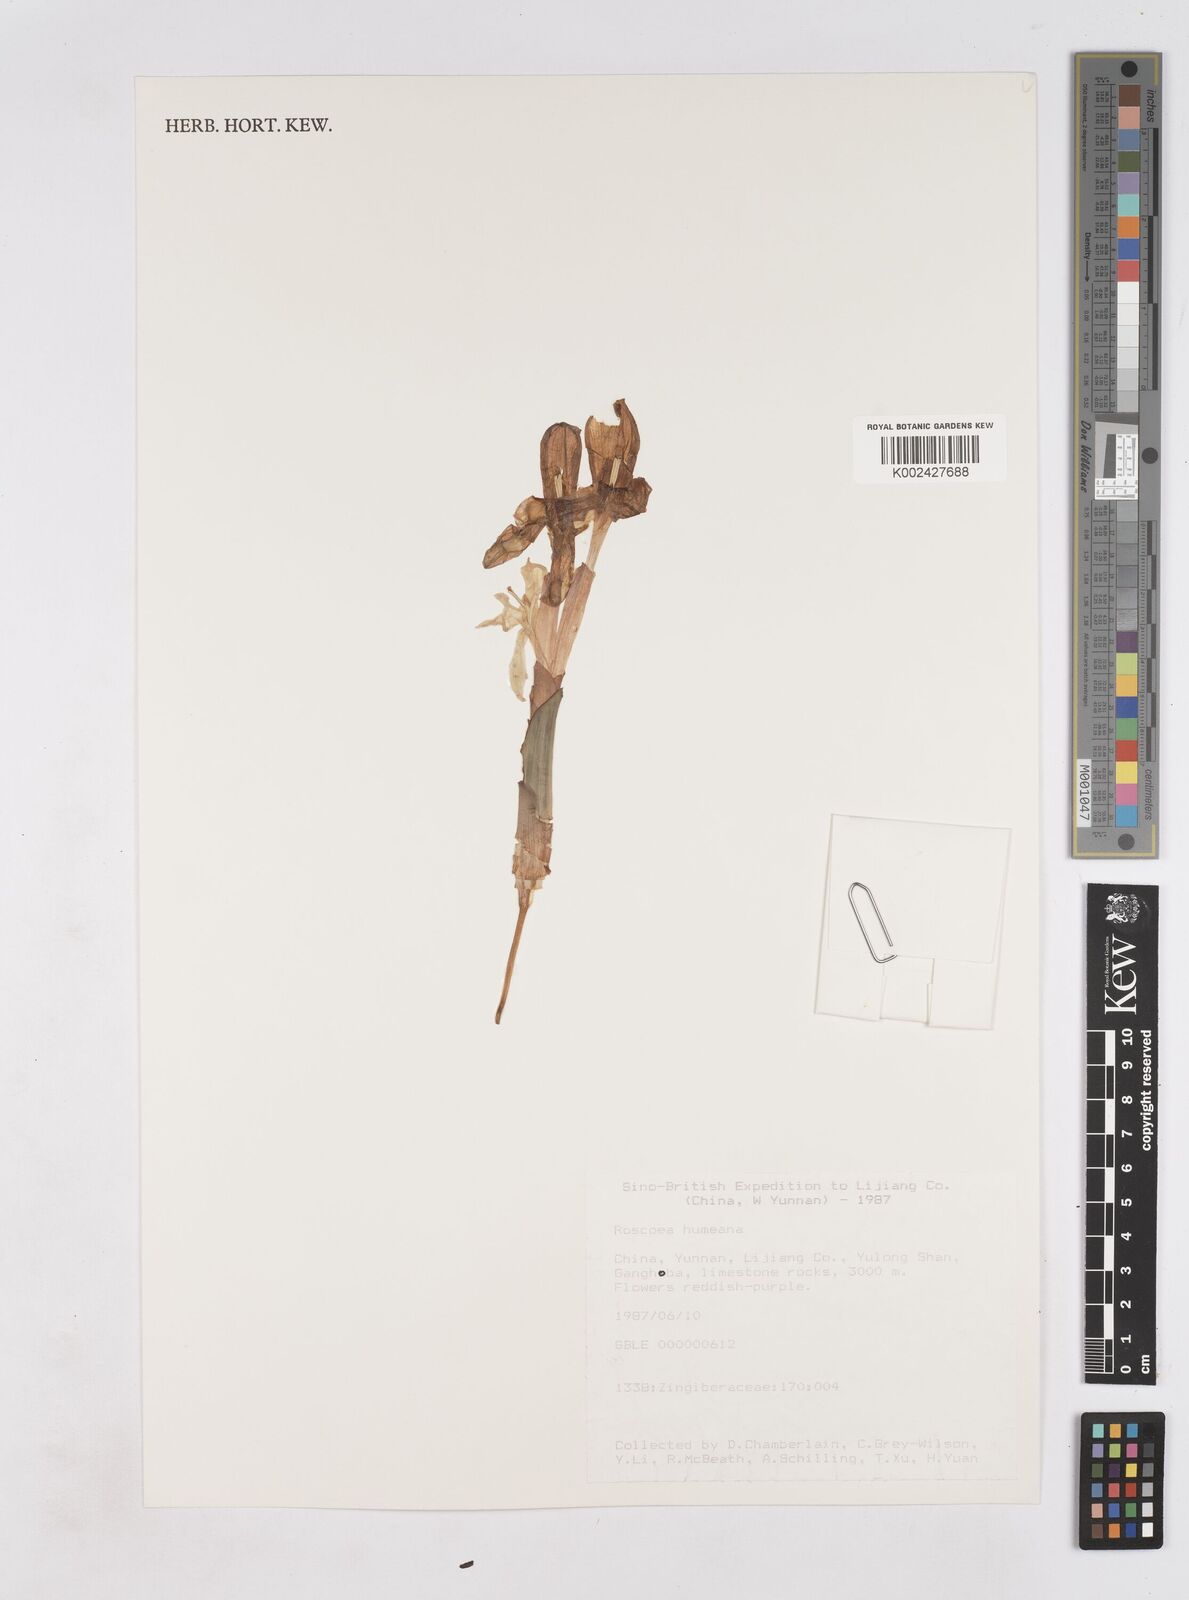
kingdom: Plantae
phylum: Tracheophyta
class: Liliopsida
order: Zingiberales
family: Zingiberaceae
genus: Roscoea
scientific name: Roscoea humeana
